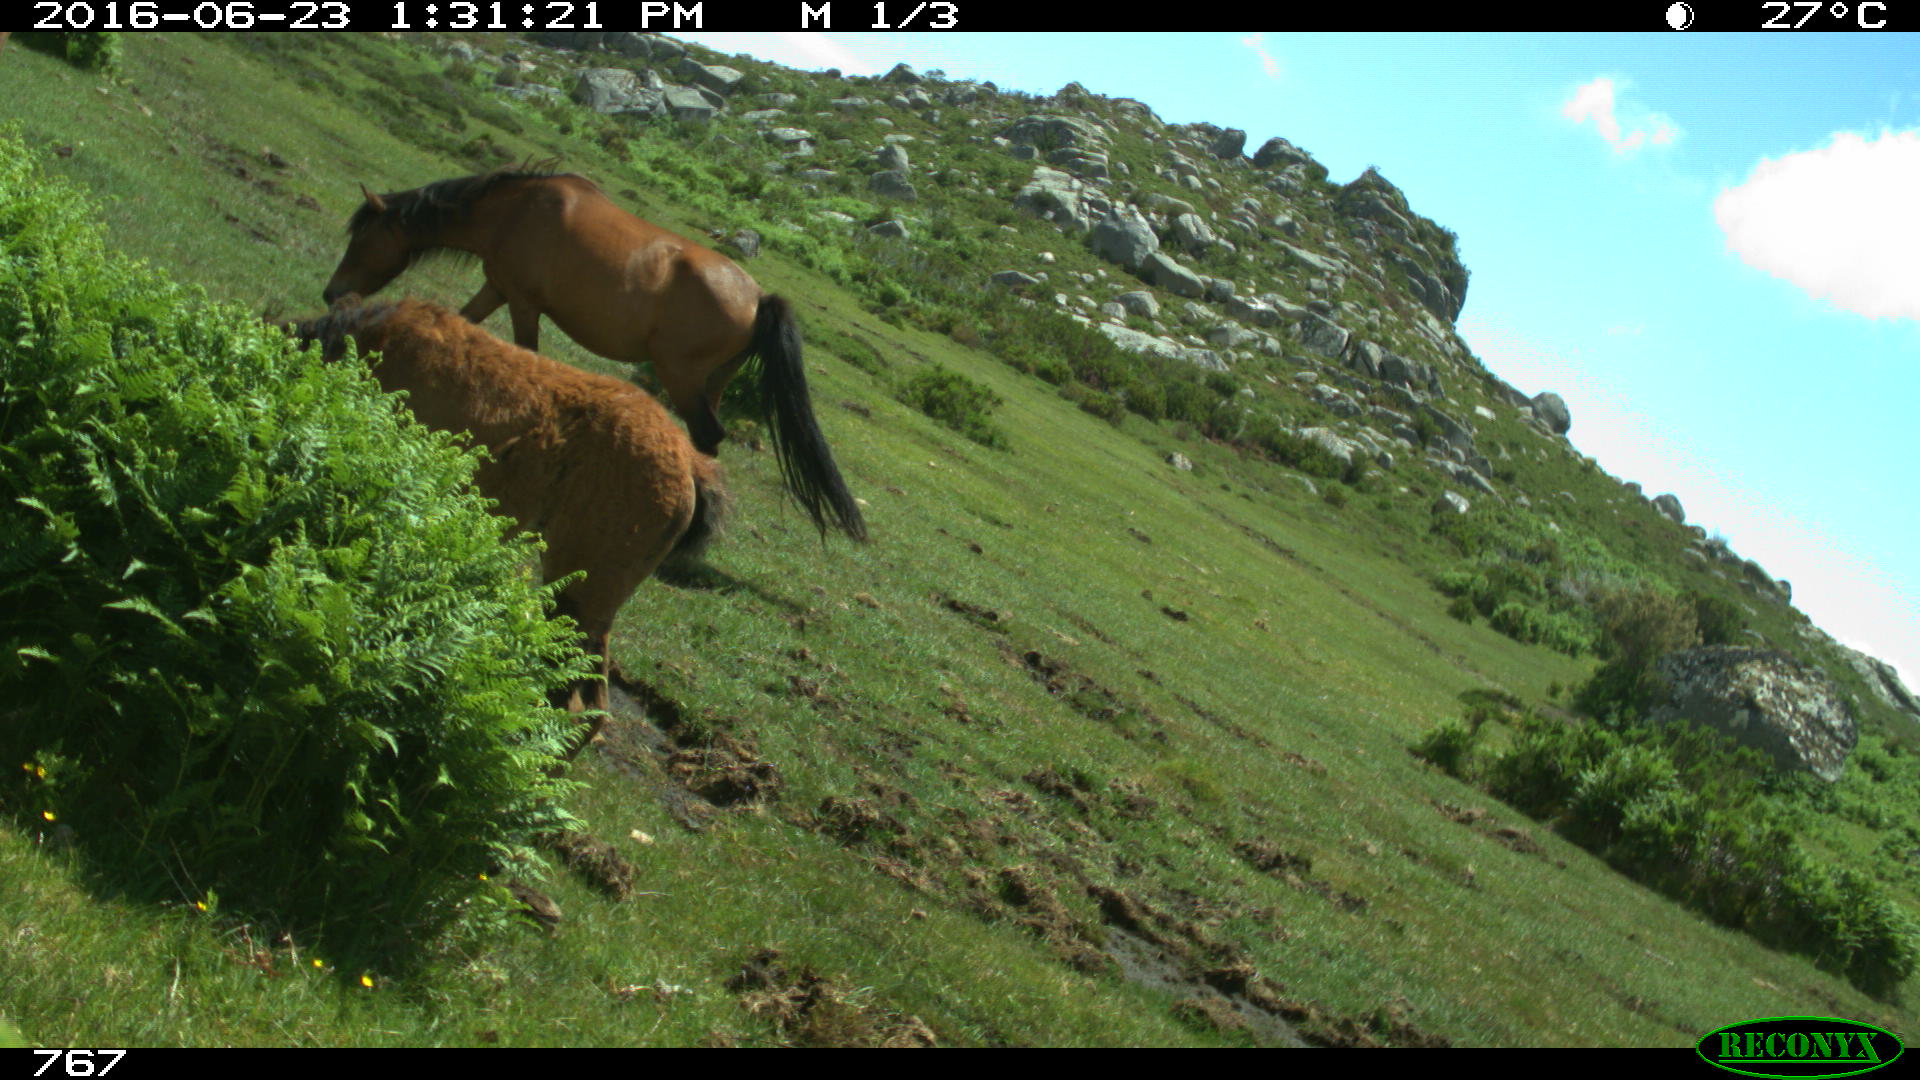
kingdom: Animalia
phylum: Chordata
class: Mammalia
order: Perissodactyla
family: Equidae
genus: Equus
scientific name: Equus caballus
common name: Horse
